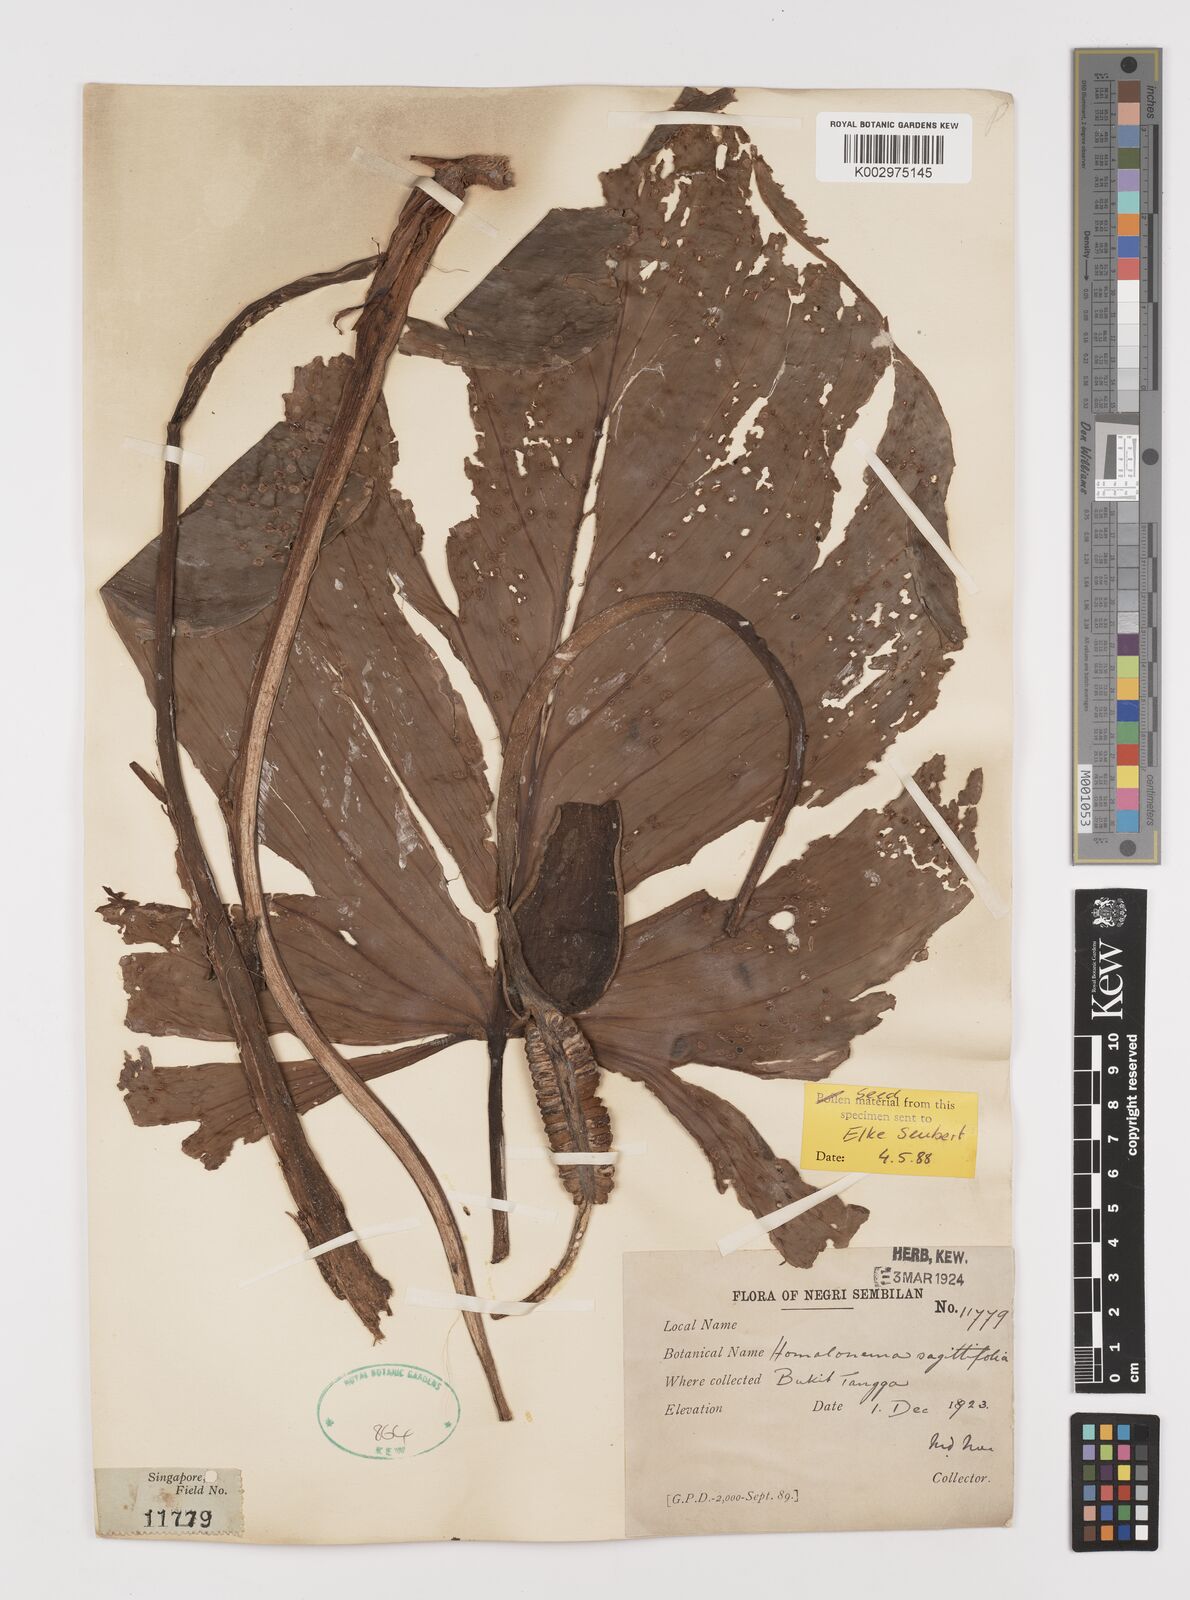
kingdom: Plantae
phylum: Tracheophyta
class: Liliopsida
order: Alismatales
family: Araceae
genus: Homalomena
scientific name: Homalomena rostrata
